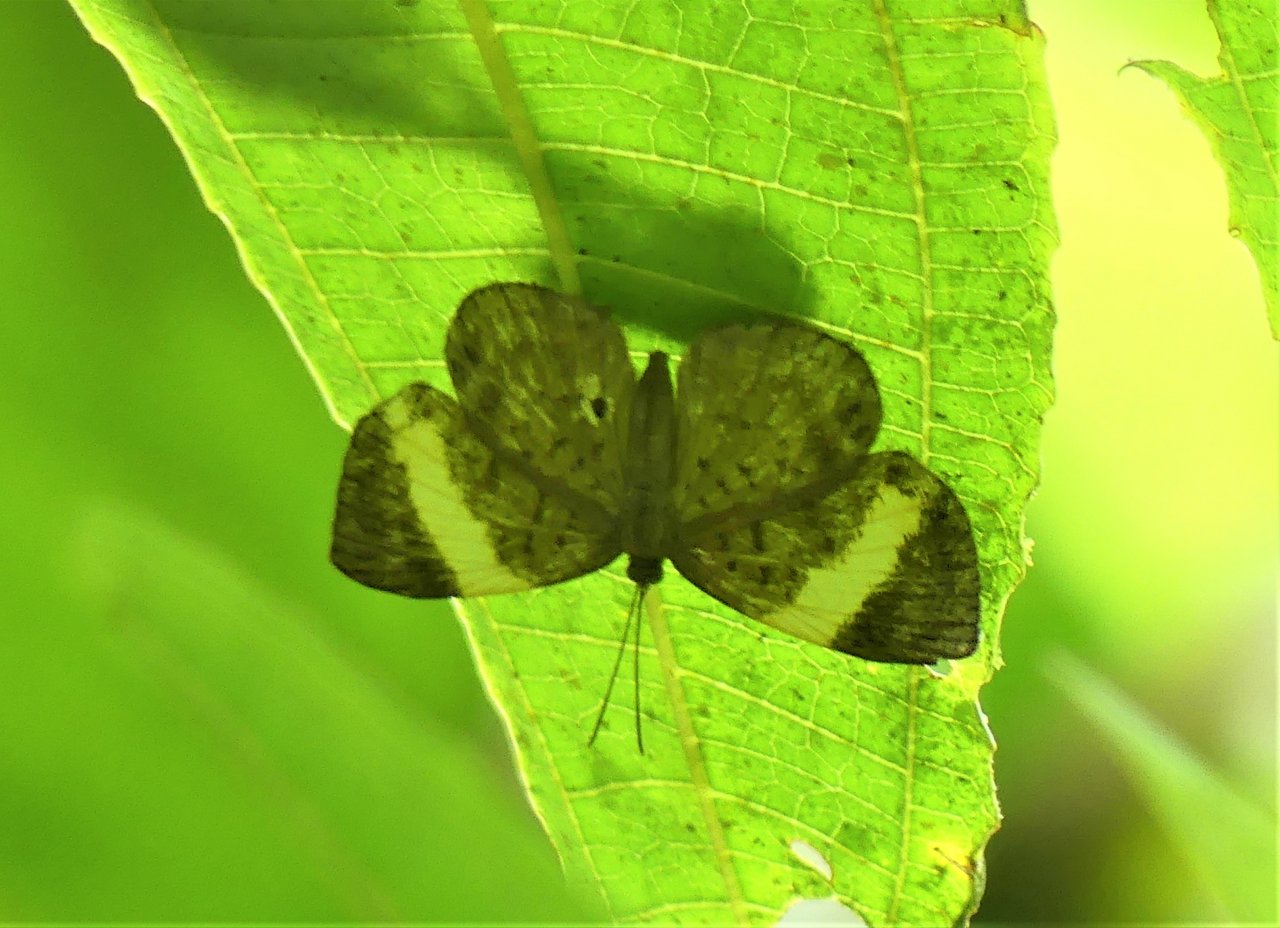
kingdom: Animalia
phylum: Arthropoda
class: Insecta
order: Lepidoptera
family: Riodinidae
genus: Hypophylla
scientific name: Hypophylla sudais
